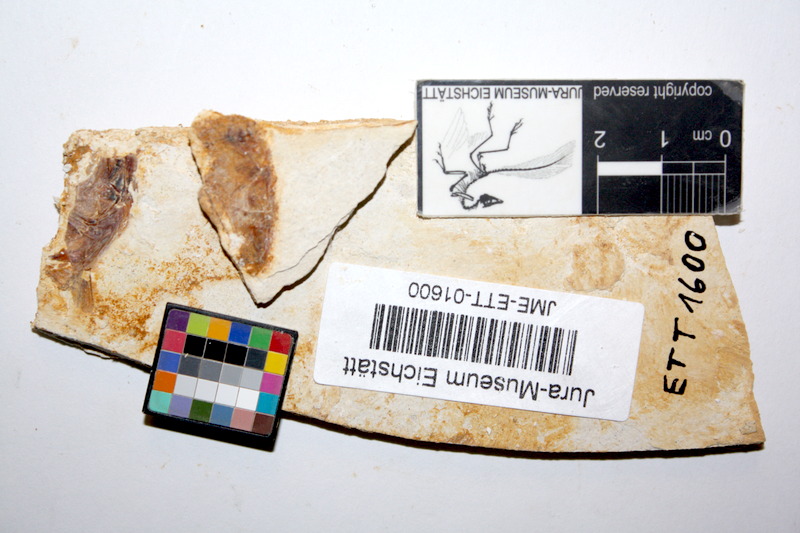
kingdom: Animalia
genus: Piscis
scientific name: Piscis
